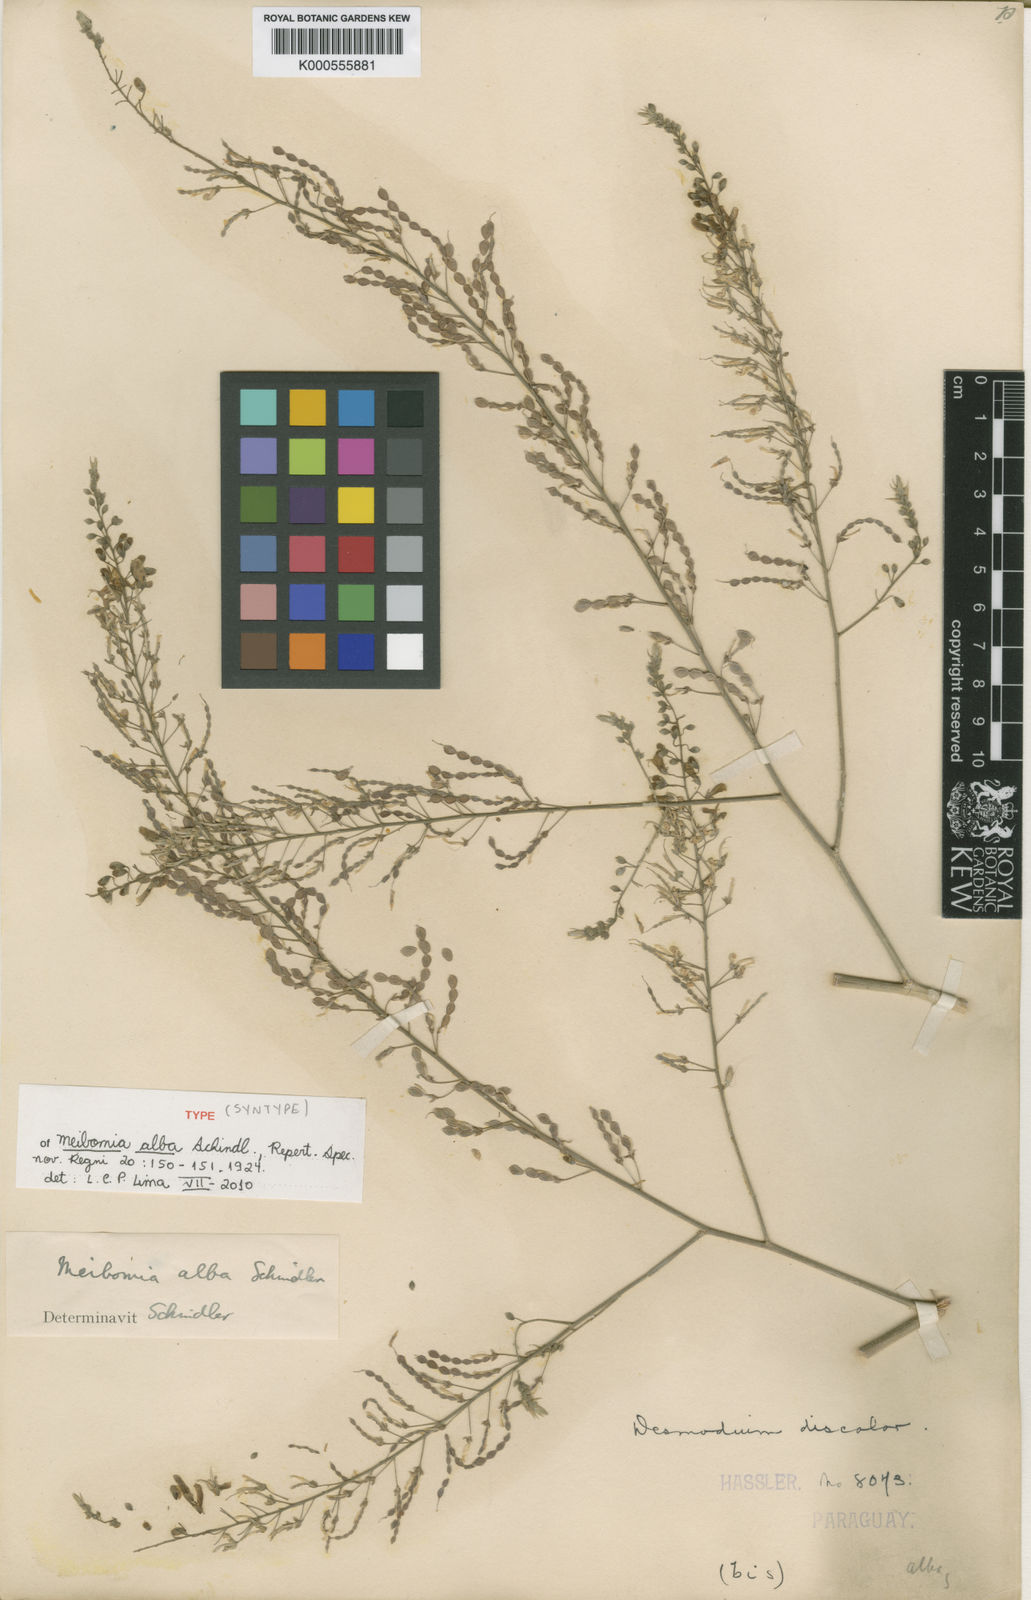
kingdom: Plantae
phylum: Tracheophyta
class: Magnoliopsida
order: Fabales
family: Fabaceae
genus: Desmodium
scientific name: Desmodium hassleri
